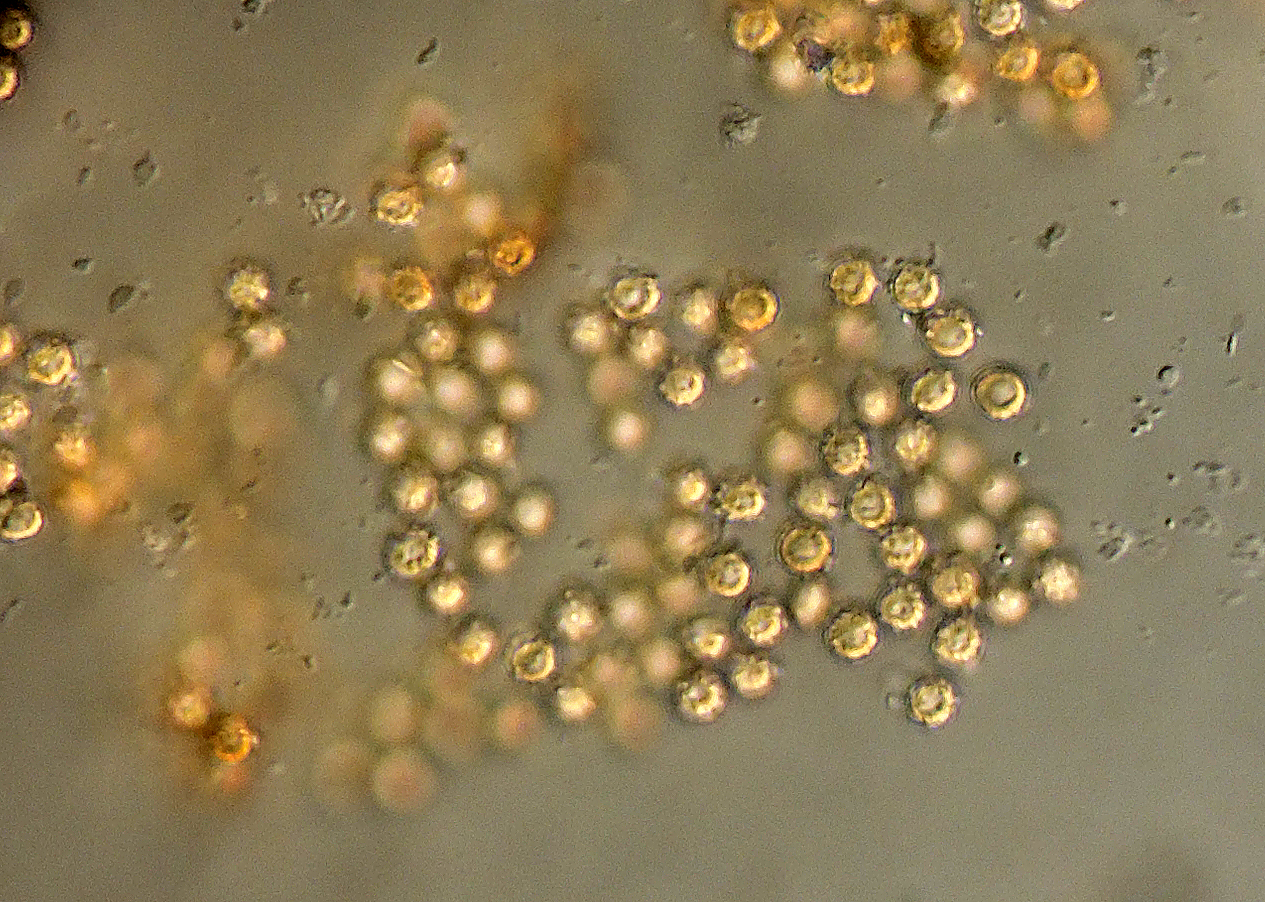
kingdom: Fungi
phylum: Basidiomycota
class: Agaricomycetes
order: Agaricales
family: Agaricaceae
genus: Tulostoma
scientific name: Tulostoma brumale
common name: vinter-stilkbovist
